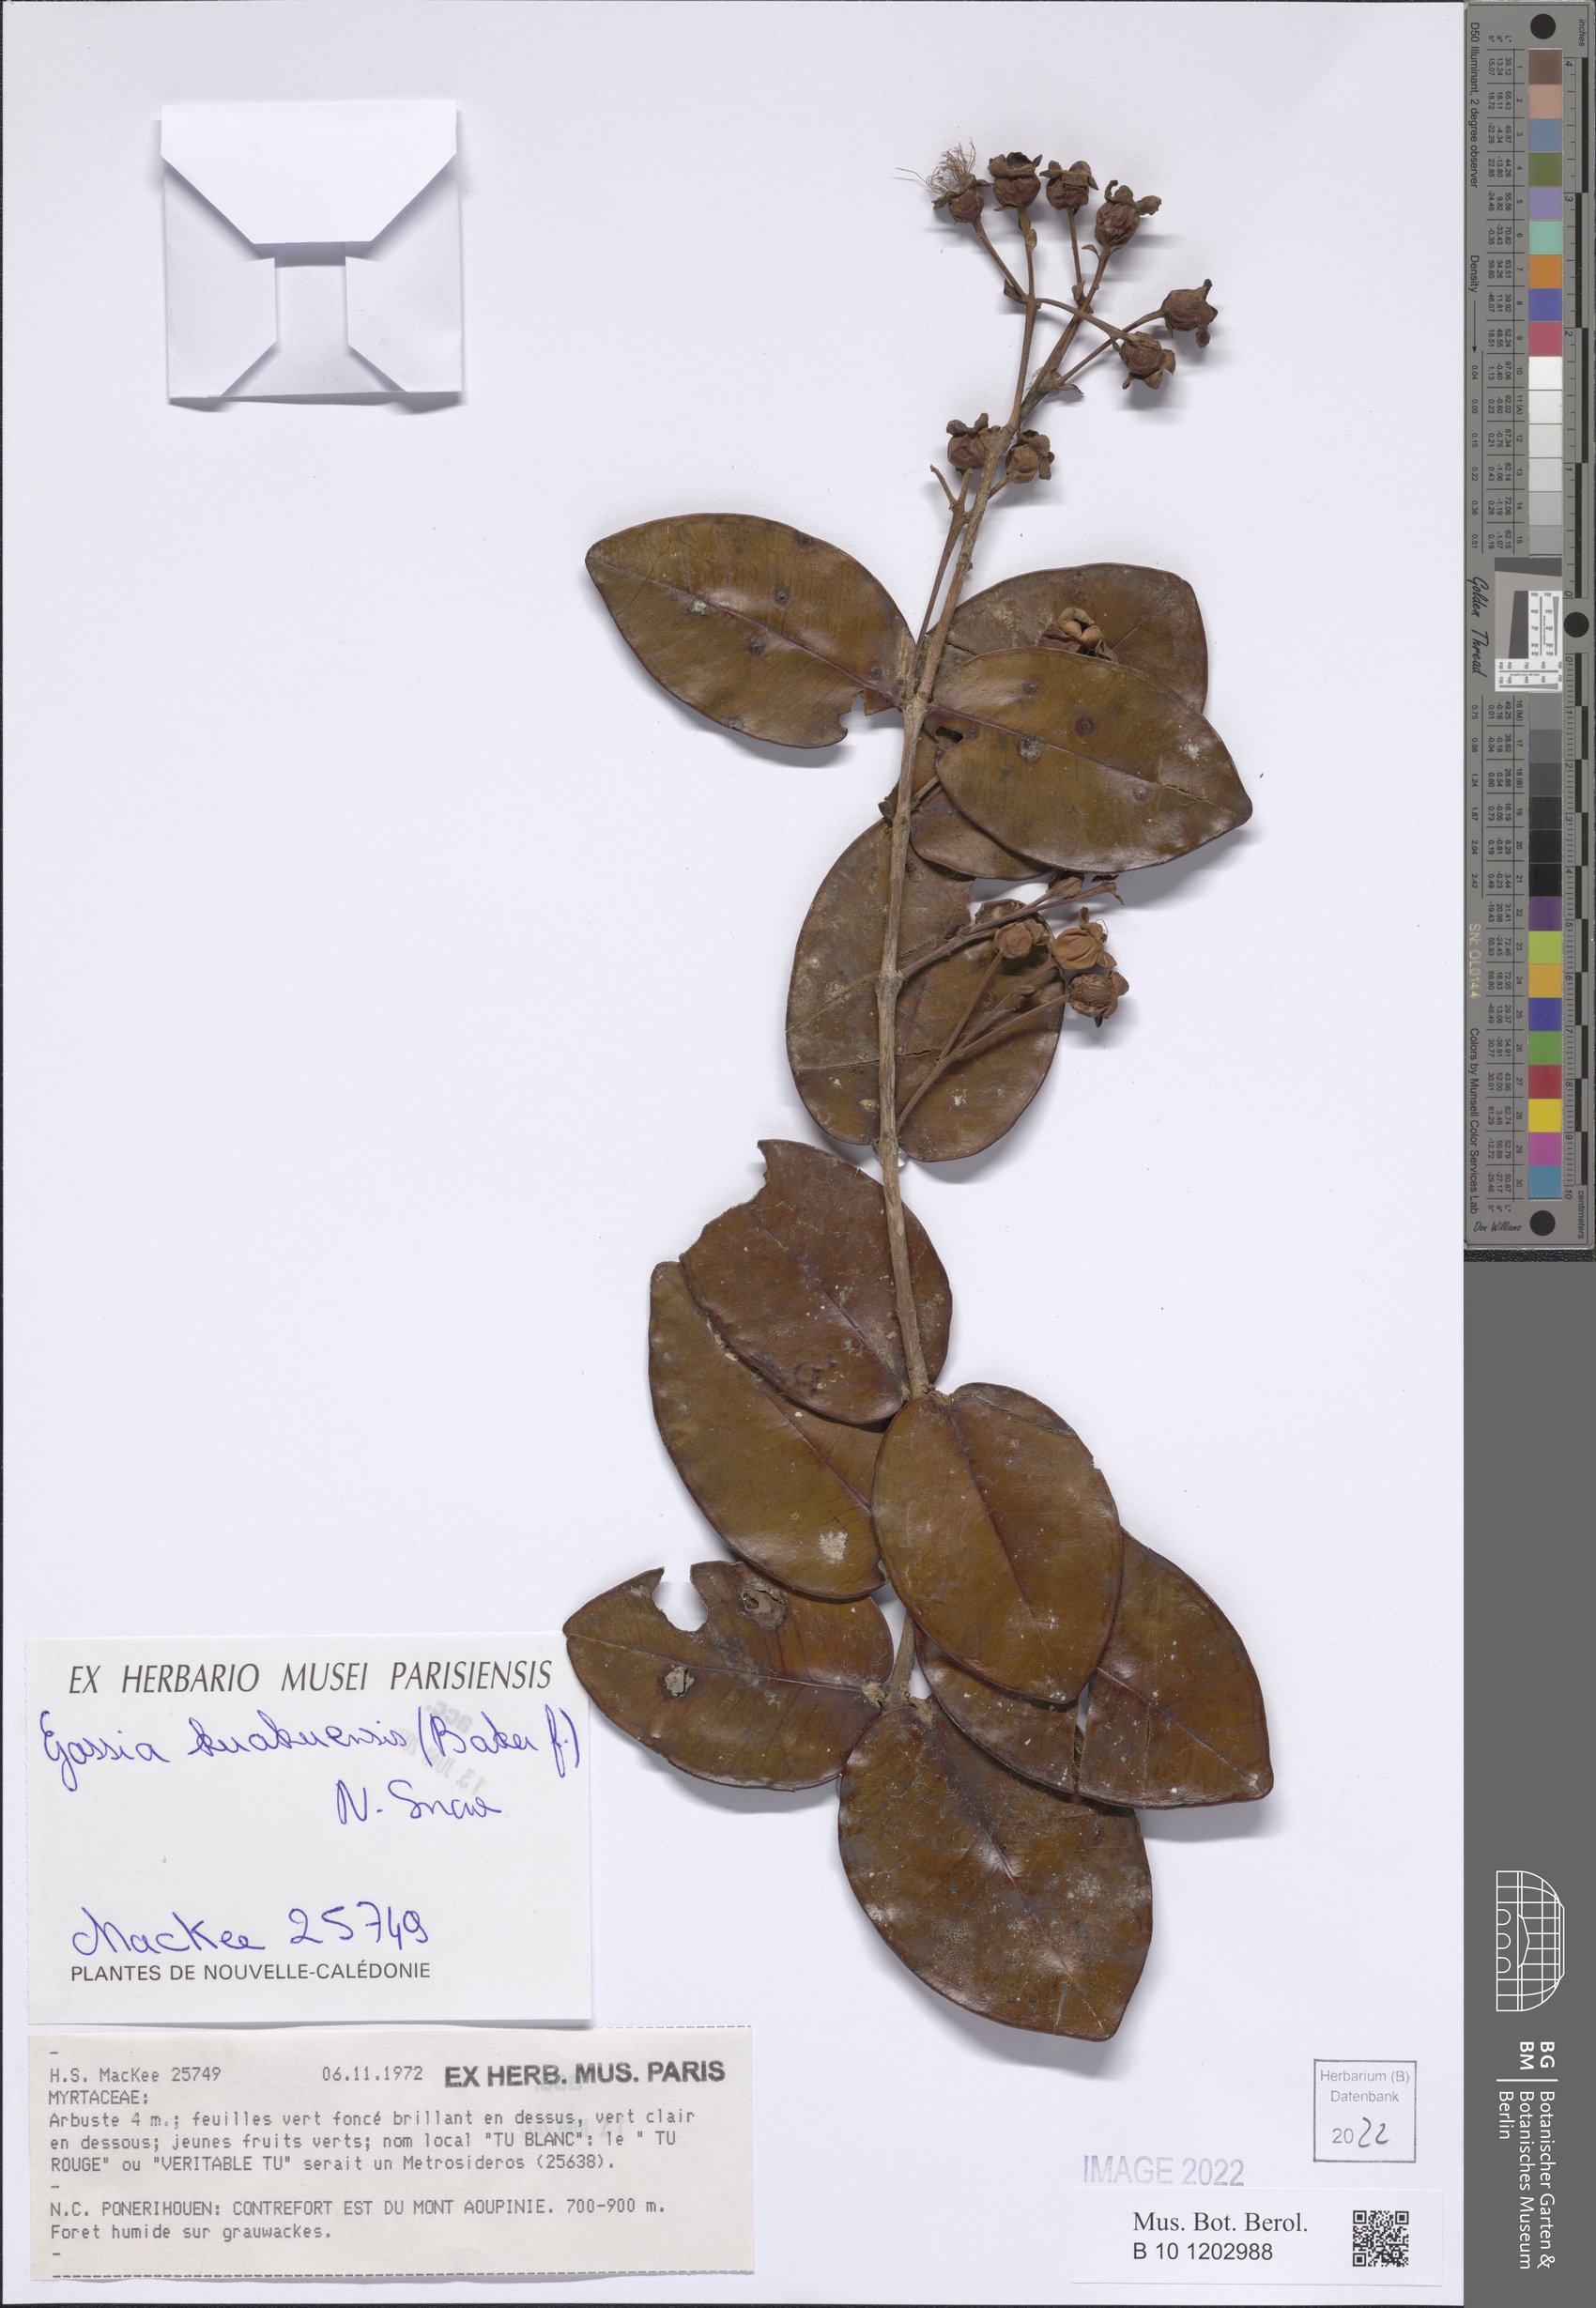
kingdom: Plantae
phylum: Tracheophyta
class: Magnoliopsida
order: Myrtales
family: Myrtaceae
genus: Gossia
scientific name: Gossia kuakuensis
